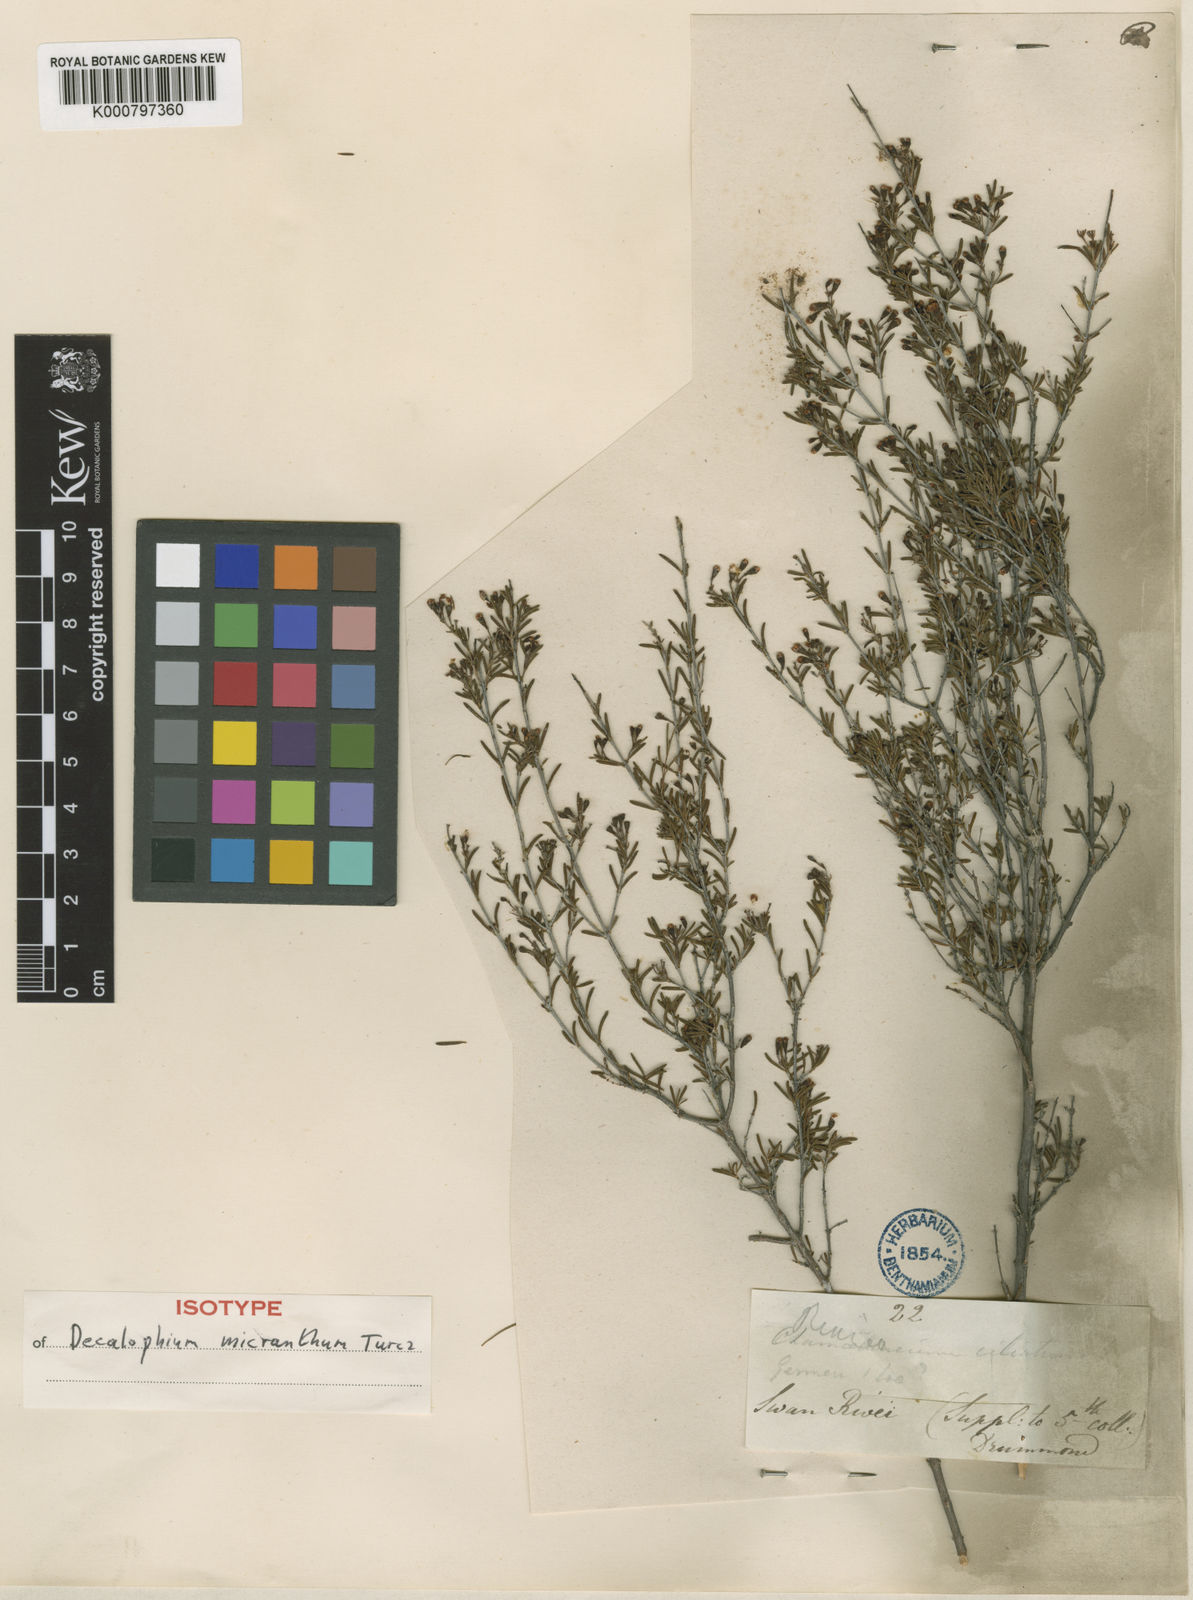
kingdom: Plantae
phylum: Tracheophyta
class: Magnoliopsida
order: Myrtales
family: Myrtaceae
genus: Chamelaucium
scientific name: Chamelaucium micranthum
